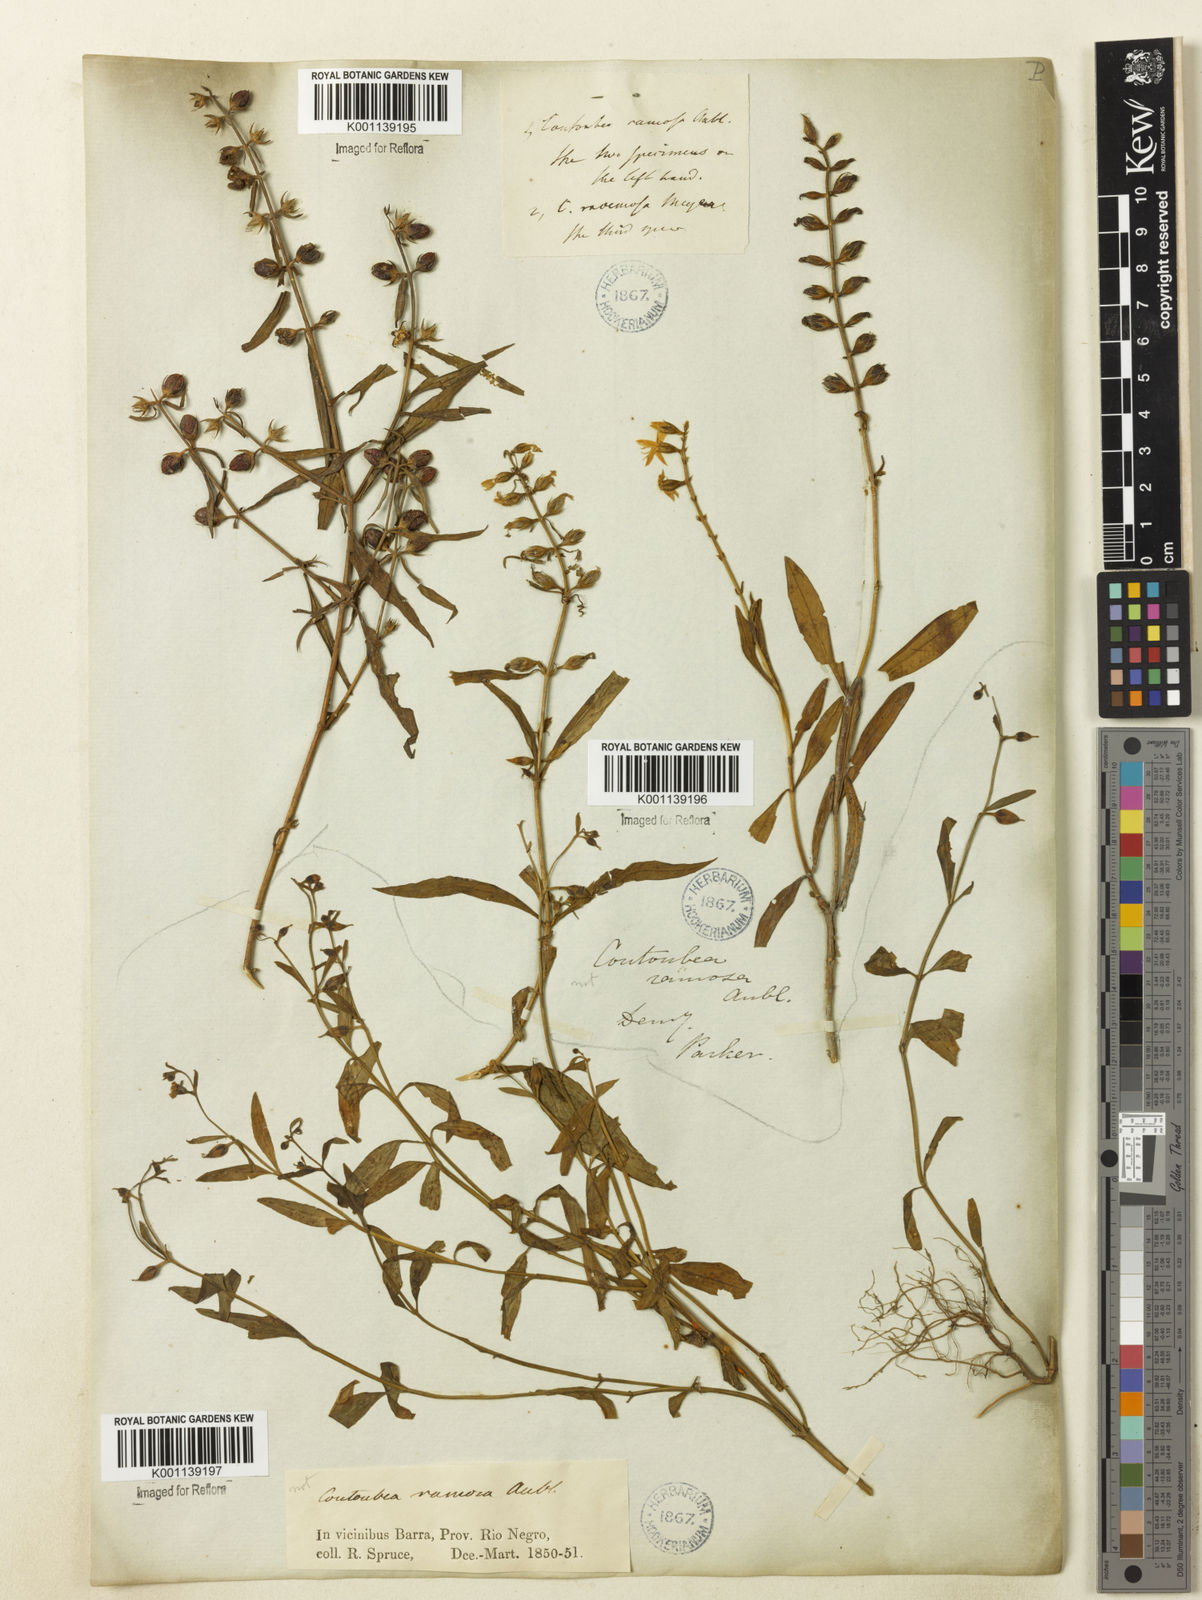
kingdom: Plantae
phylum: Tracheophyta
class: Magnoliopsida
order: Gentianales
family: Gentianaceae
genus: Coutoubea
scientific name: Coutoubea ramosa
